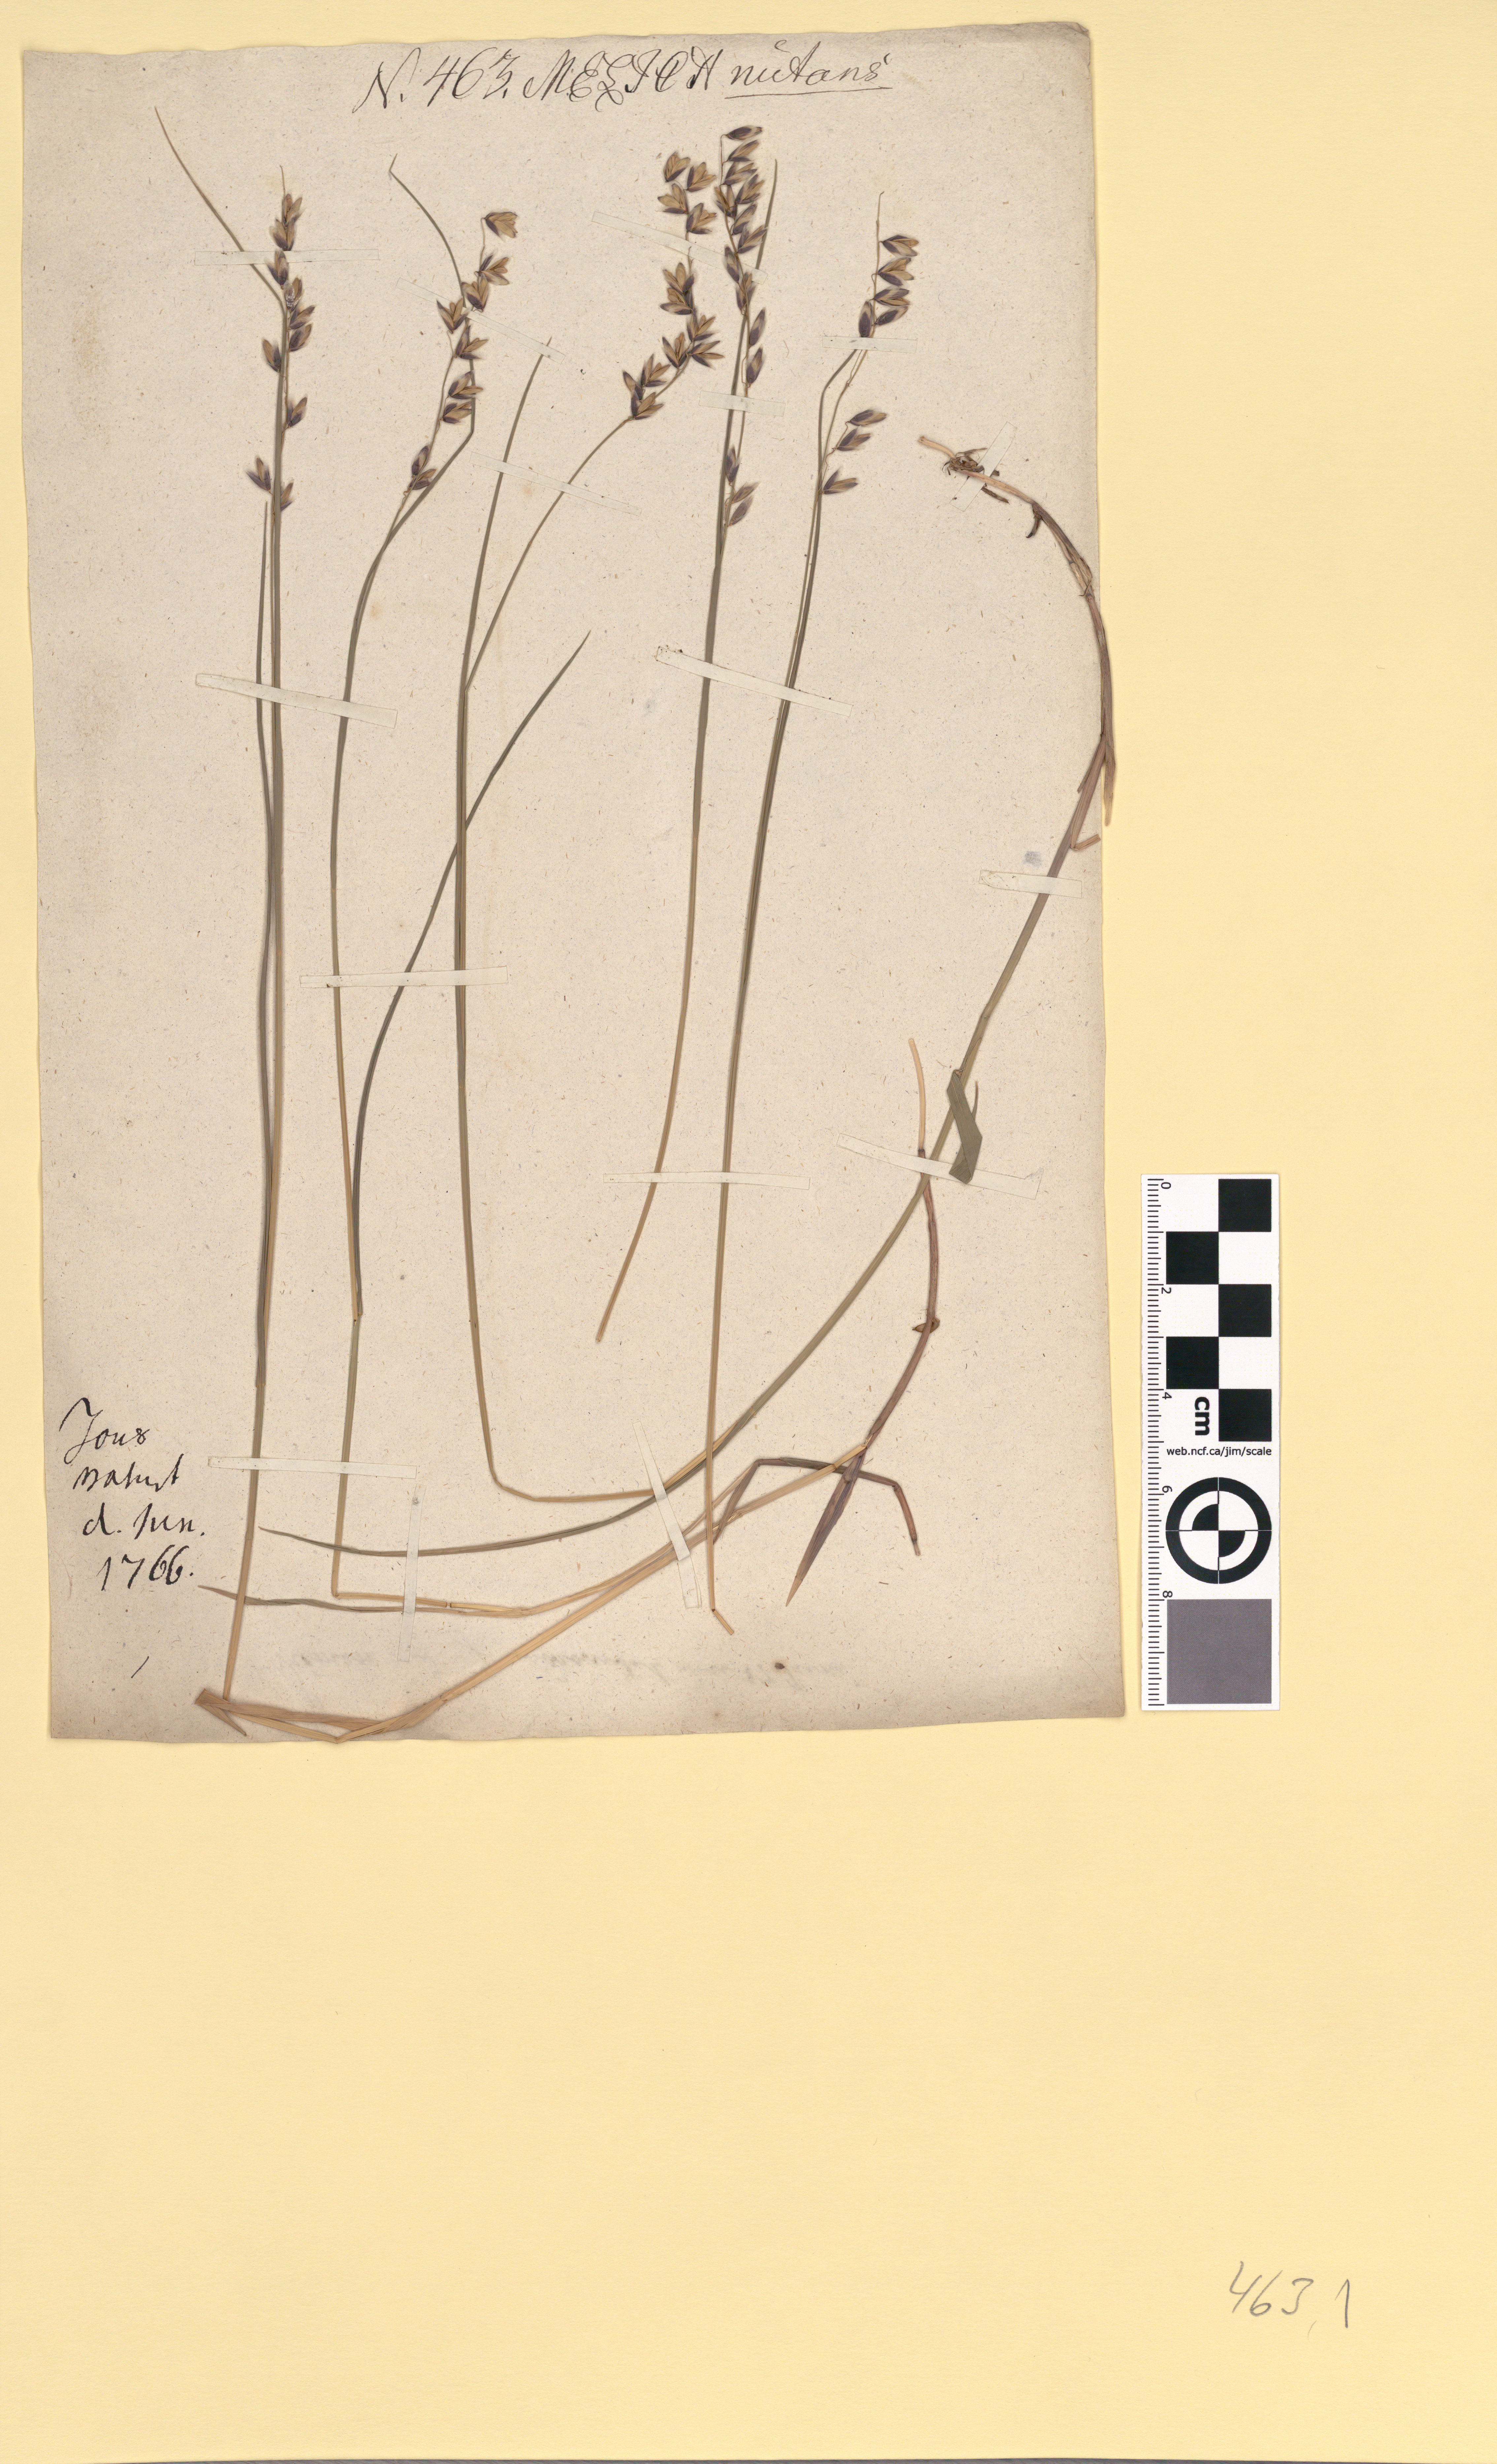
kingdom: Plantae
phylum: Tracheophyta
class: Liliopsida
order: Poales
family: Poaceae
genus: Melica
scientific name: Melica nutans
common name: Mountain melick
